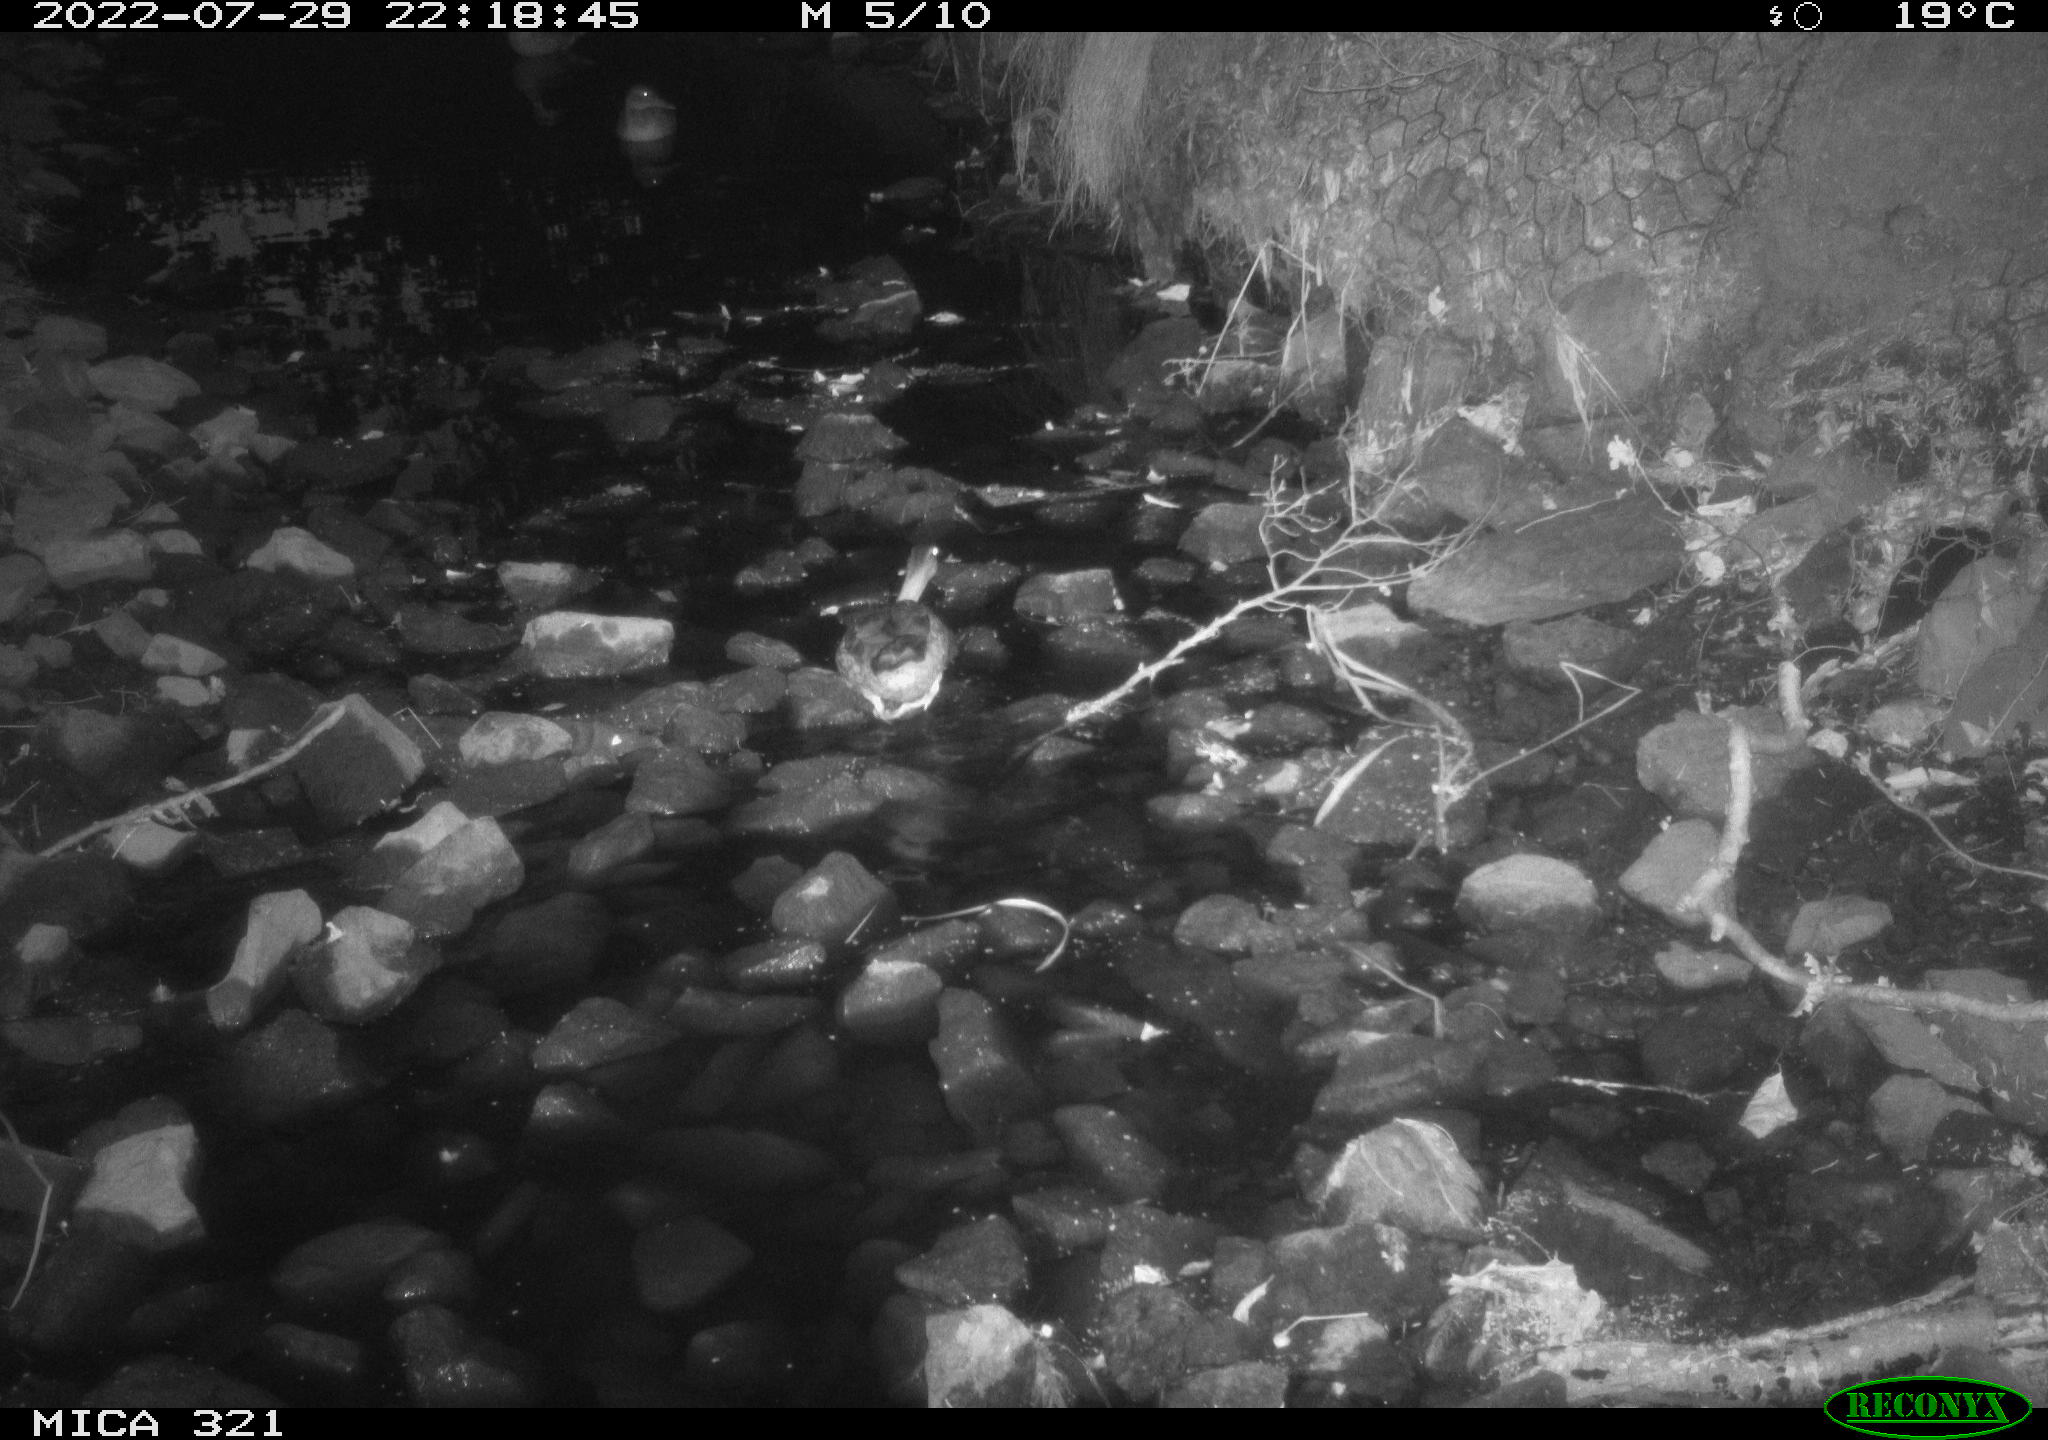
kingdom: Animalia
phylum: Chordata
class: Aves
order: Anseriformes
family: Anatidae
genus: Anas
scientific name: Anas platyrhynchos
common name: Mallard
